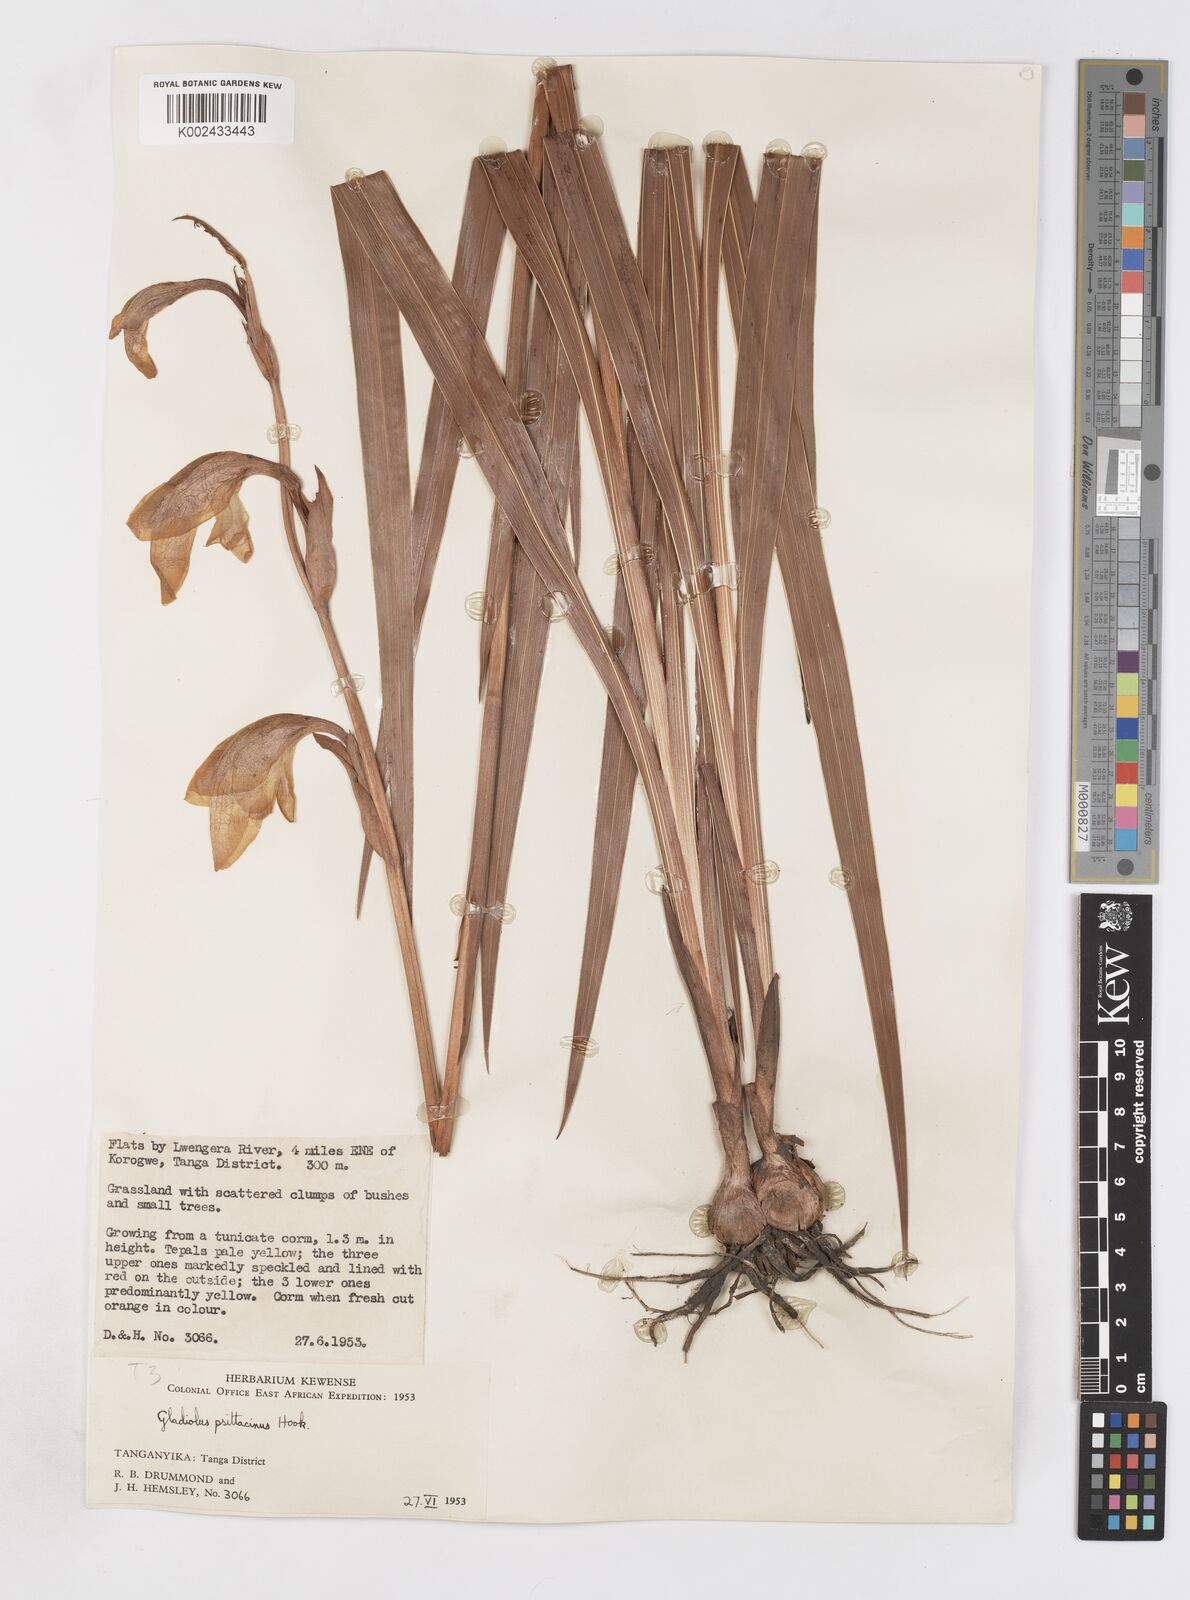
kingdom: Plantae
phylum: Tracheophyta
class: Liliopsida
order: Asparagales
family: Iridaceae
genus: Gladiolus
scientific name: Gladiolus dalenii
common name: Cornflag
